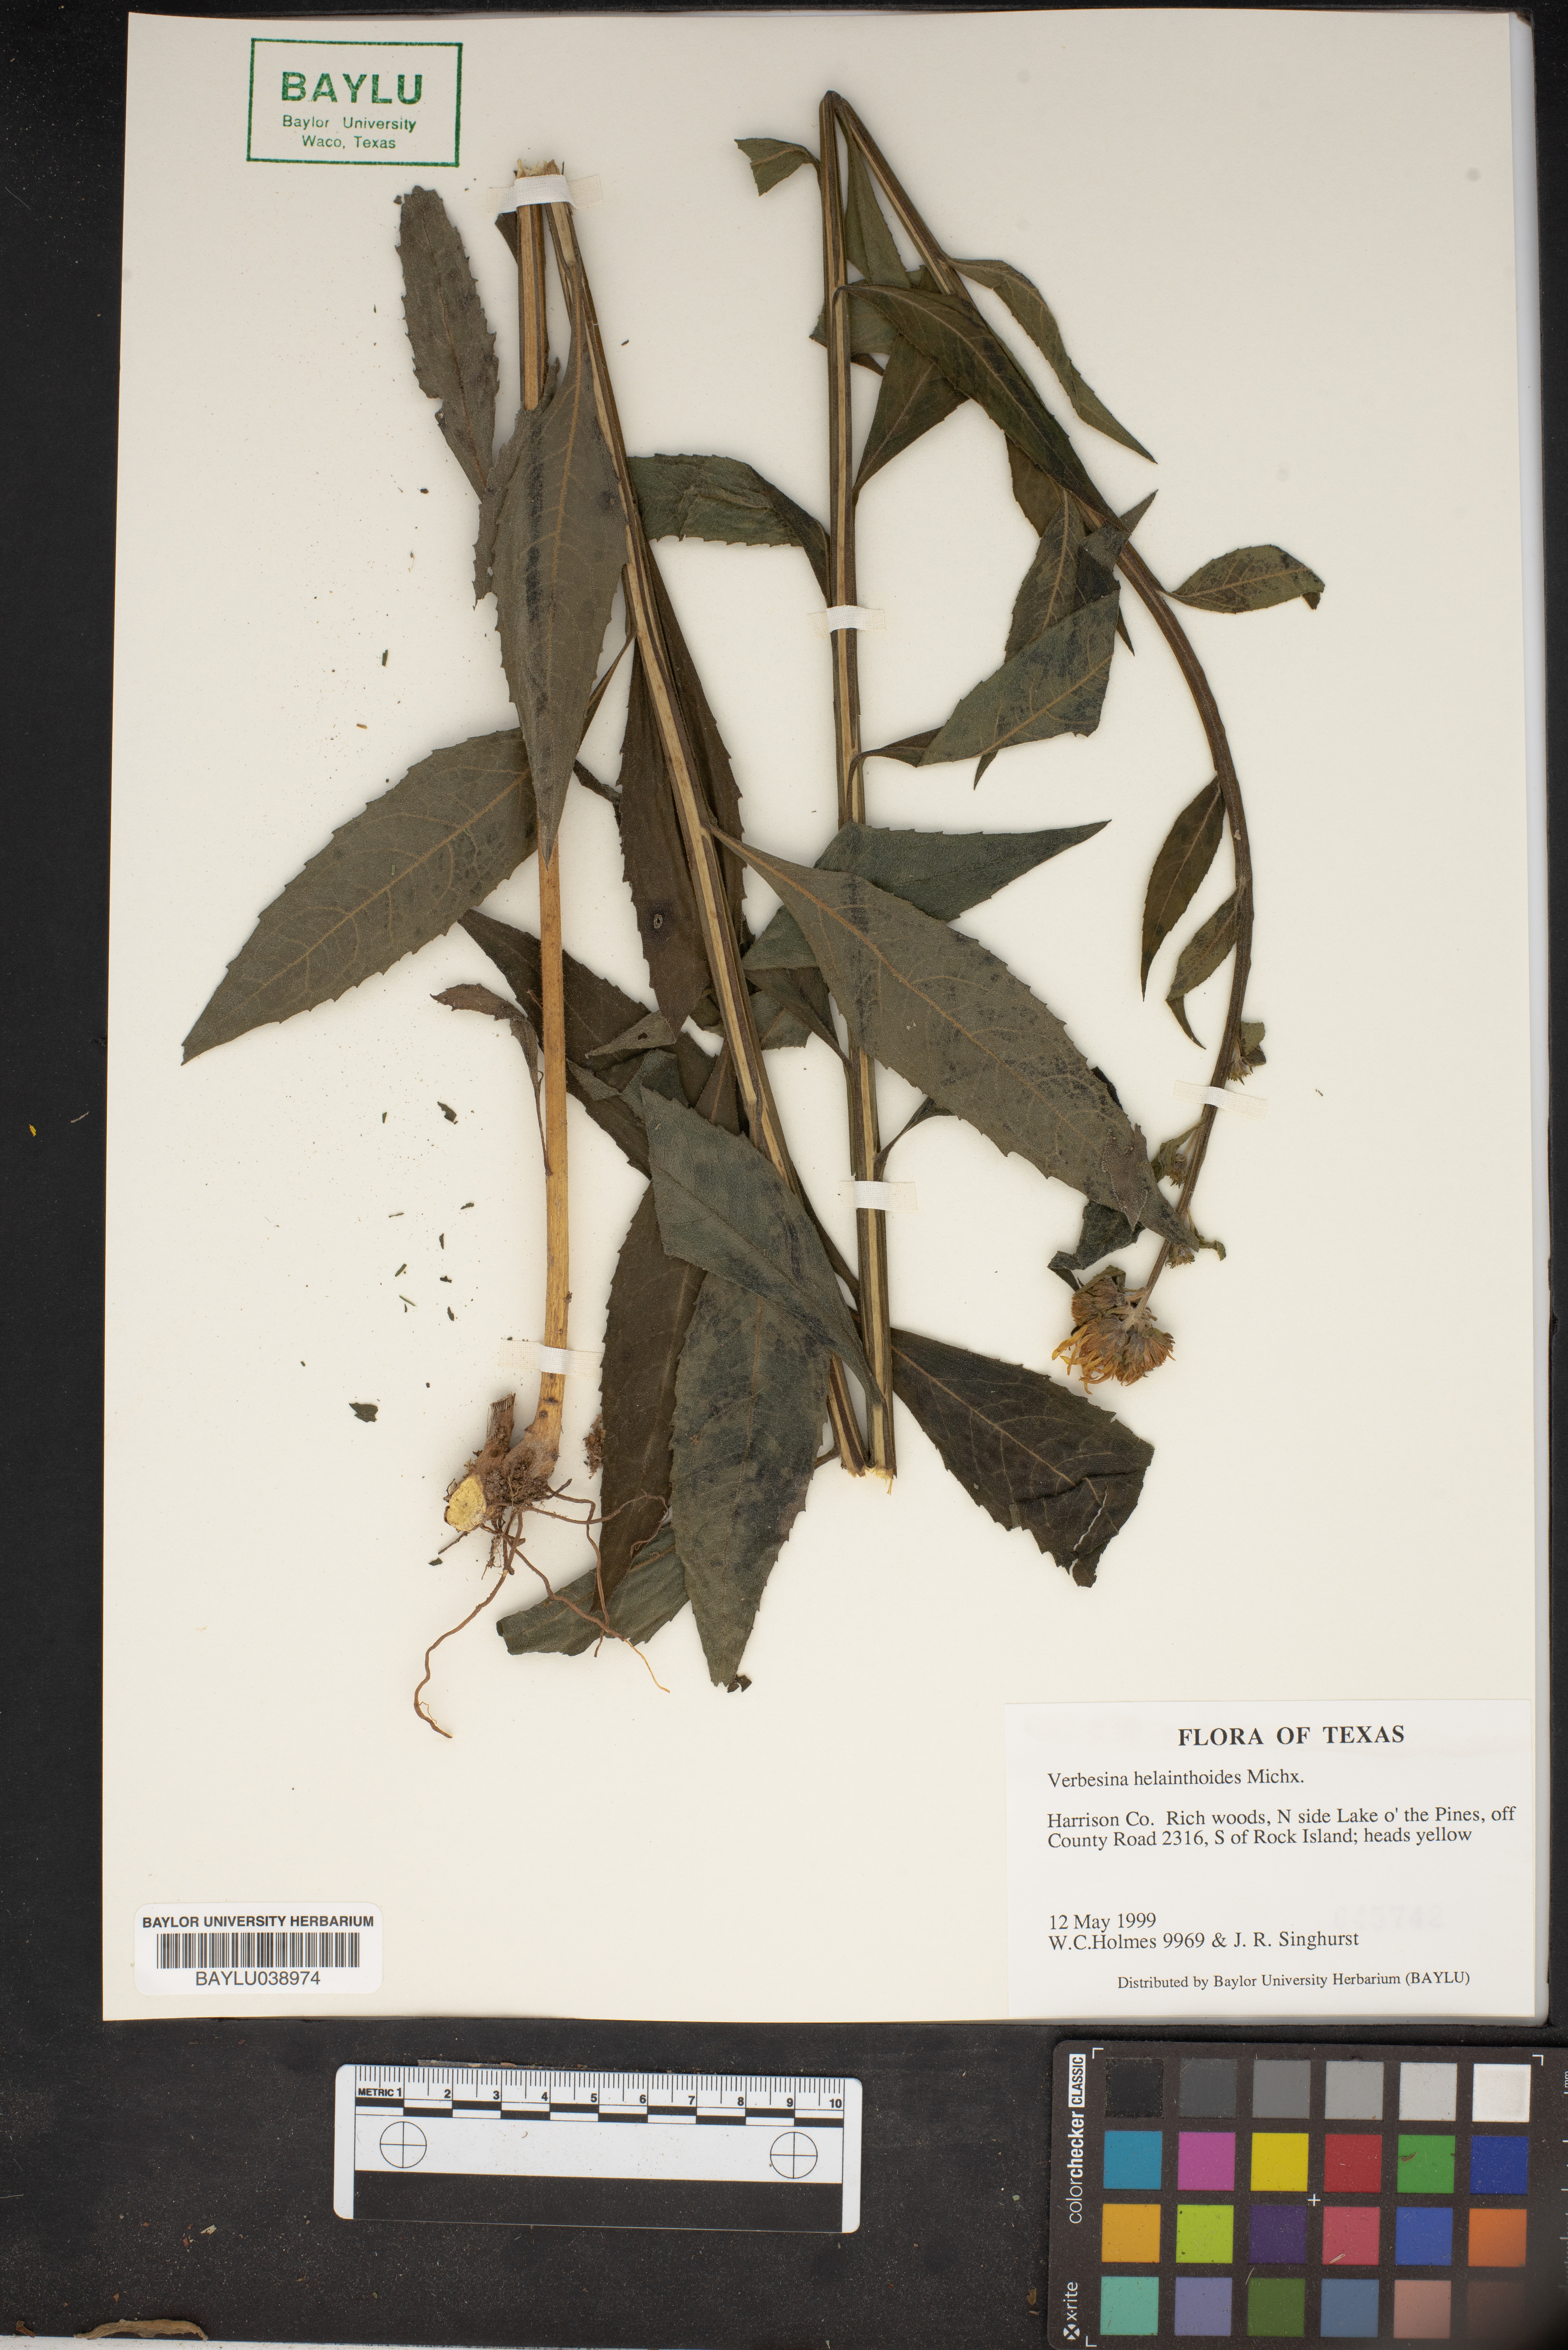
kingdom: Plantae
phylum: Tracheophyta
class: Magnoliopsida
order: Asterales
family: Asteraceae
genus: Verbesina
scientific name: Verbesina helianthoides
